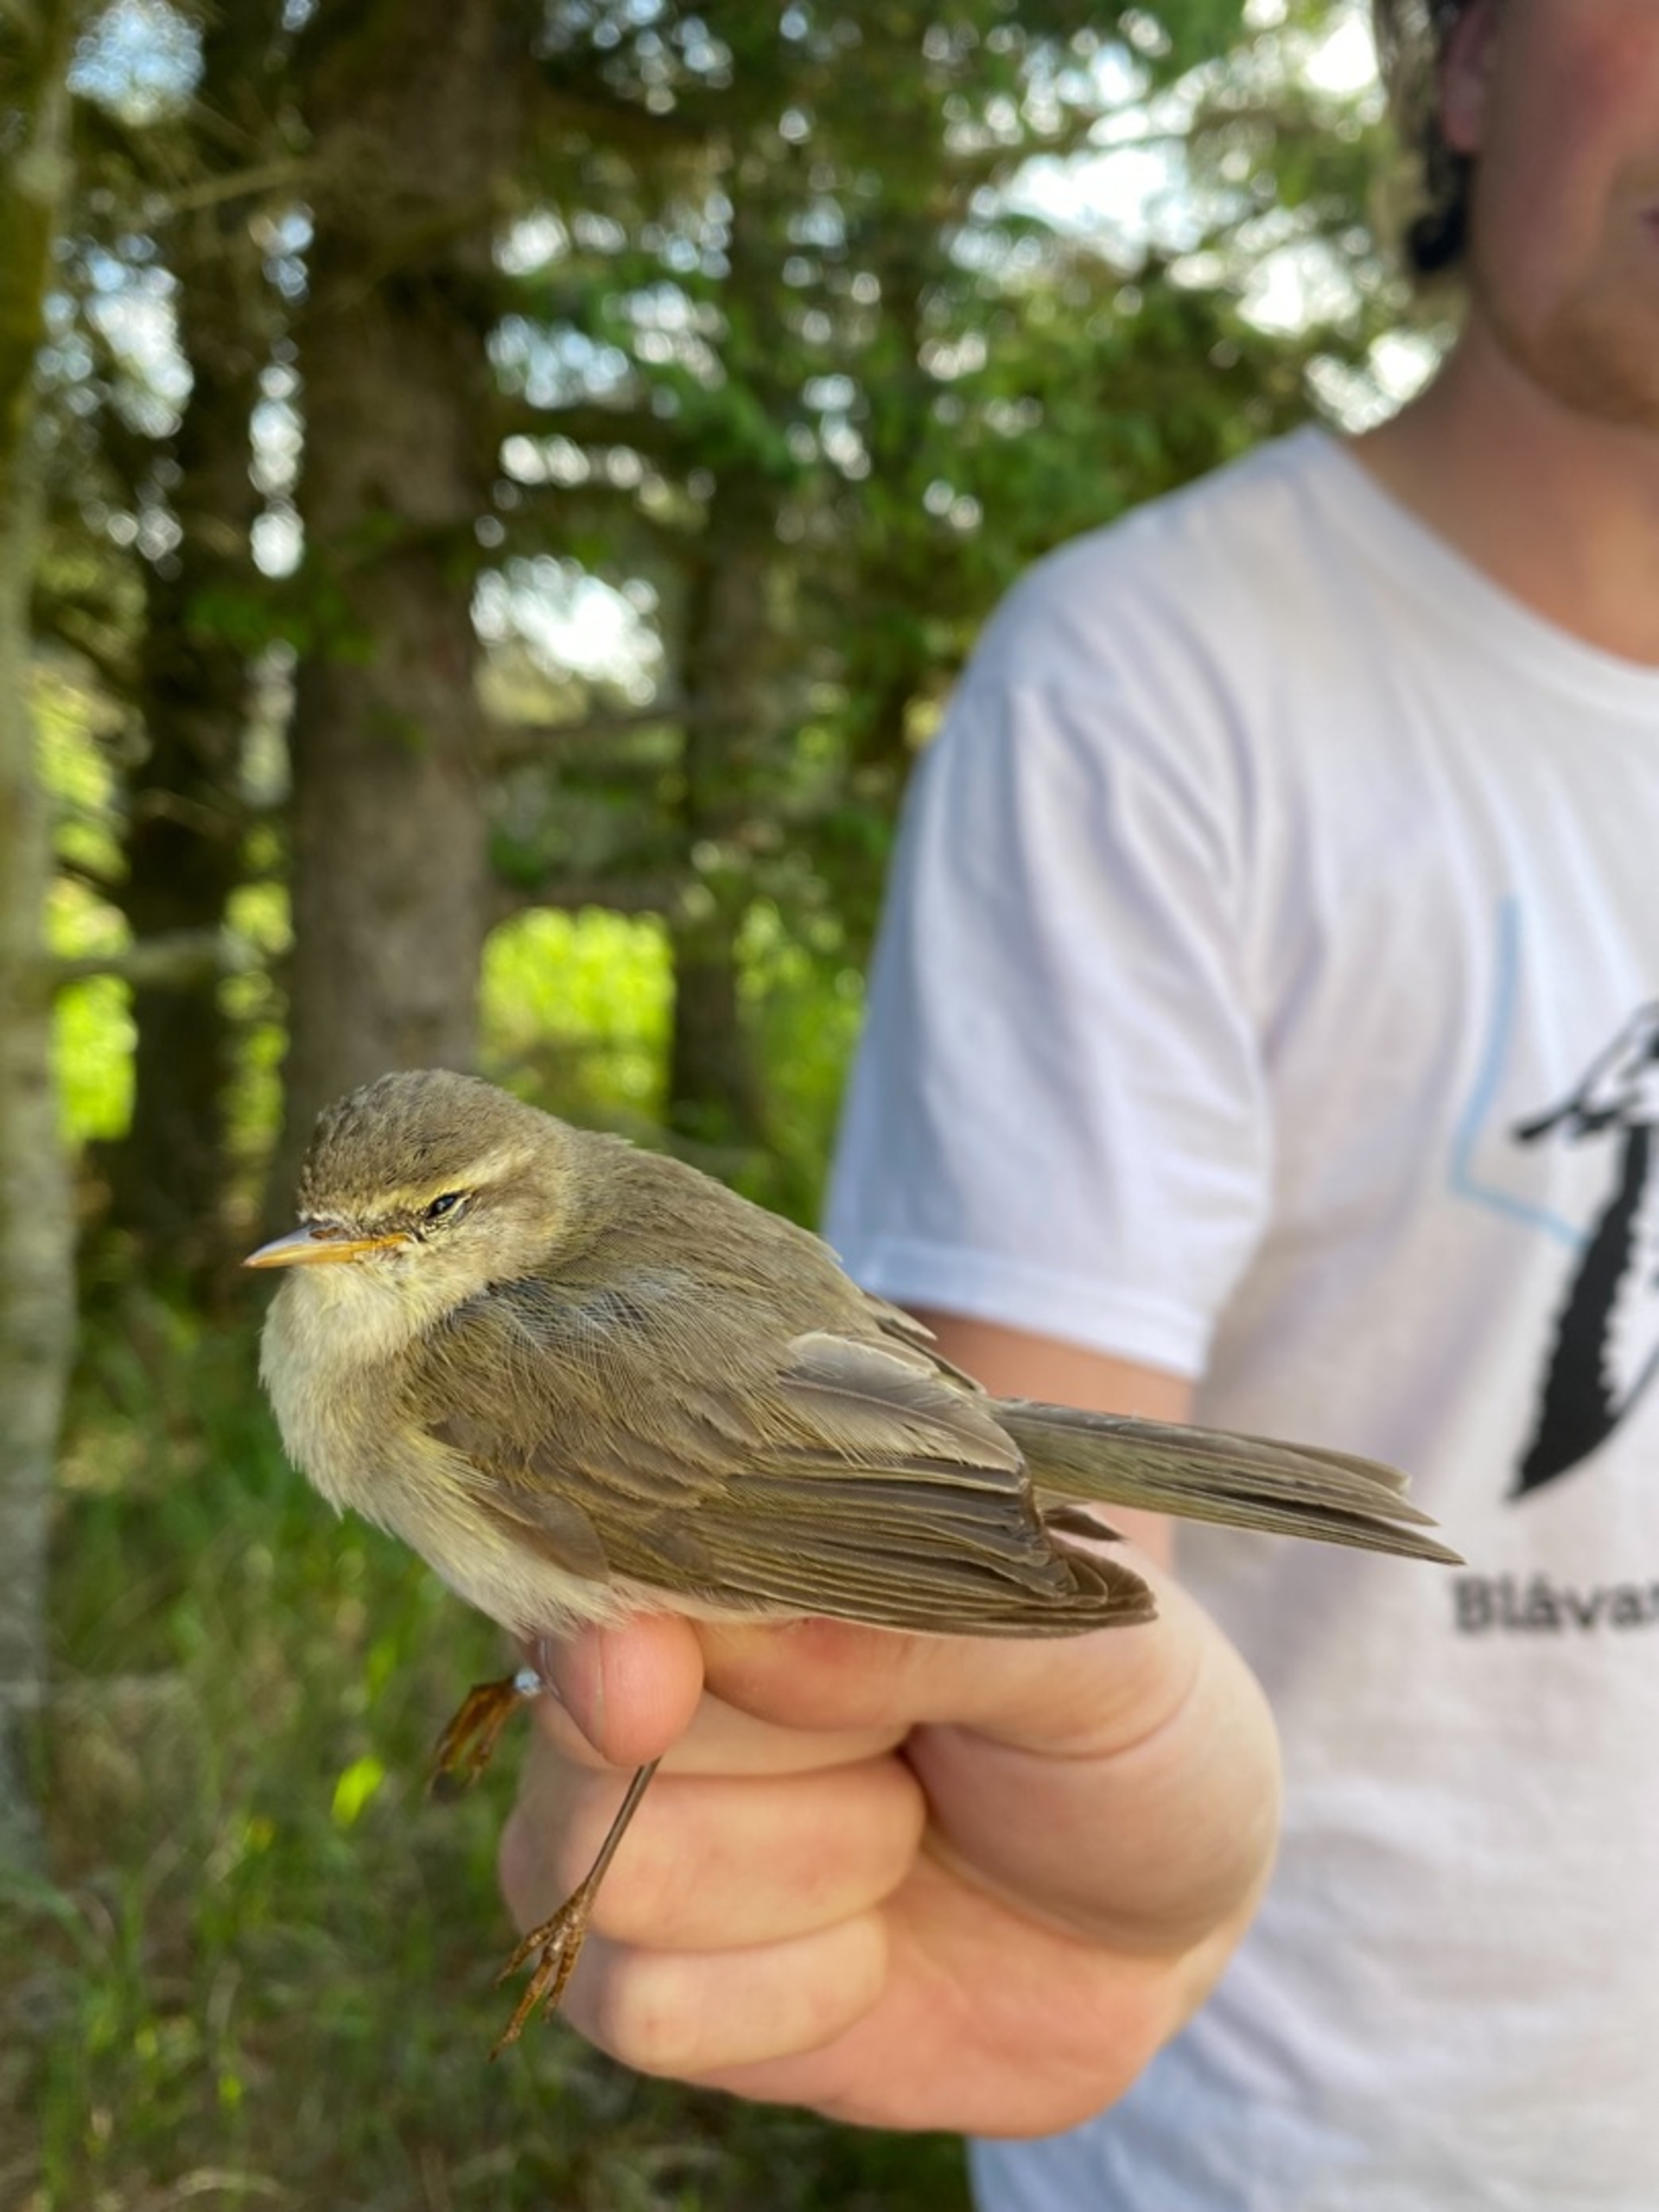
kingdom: Animalia
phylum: Chordata
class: Aves
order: Passeriformes
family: Phylloscopidae
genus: Phylloscopus
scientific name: Phylloscopus collybita
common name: Gransanger
